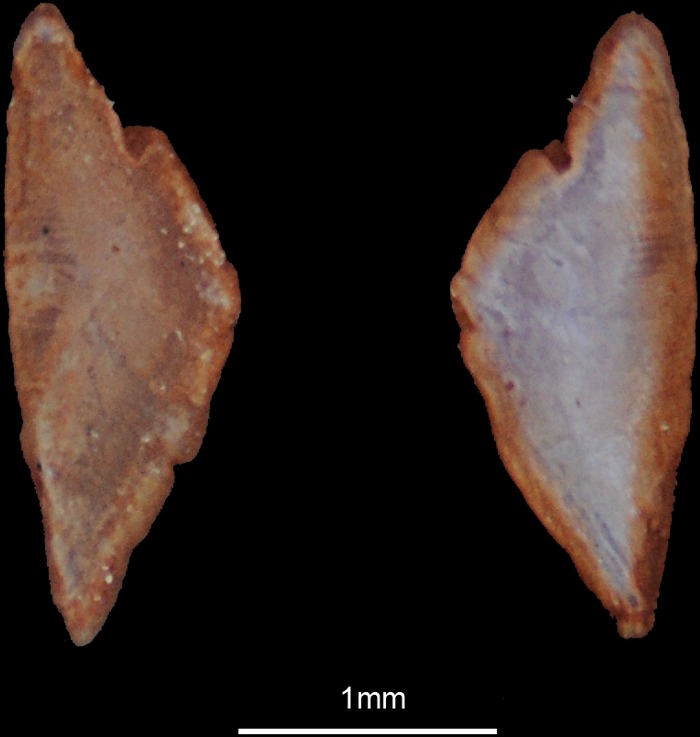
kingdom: Animalia
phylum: Chordata
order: Perciformes
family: Callionymidae
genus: Synchiropus
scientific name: Synchiropus splendidus
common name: Mandarinfish
